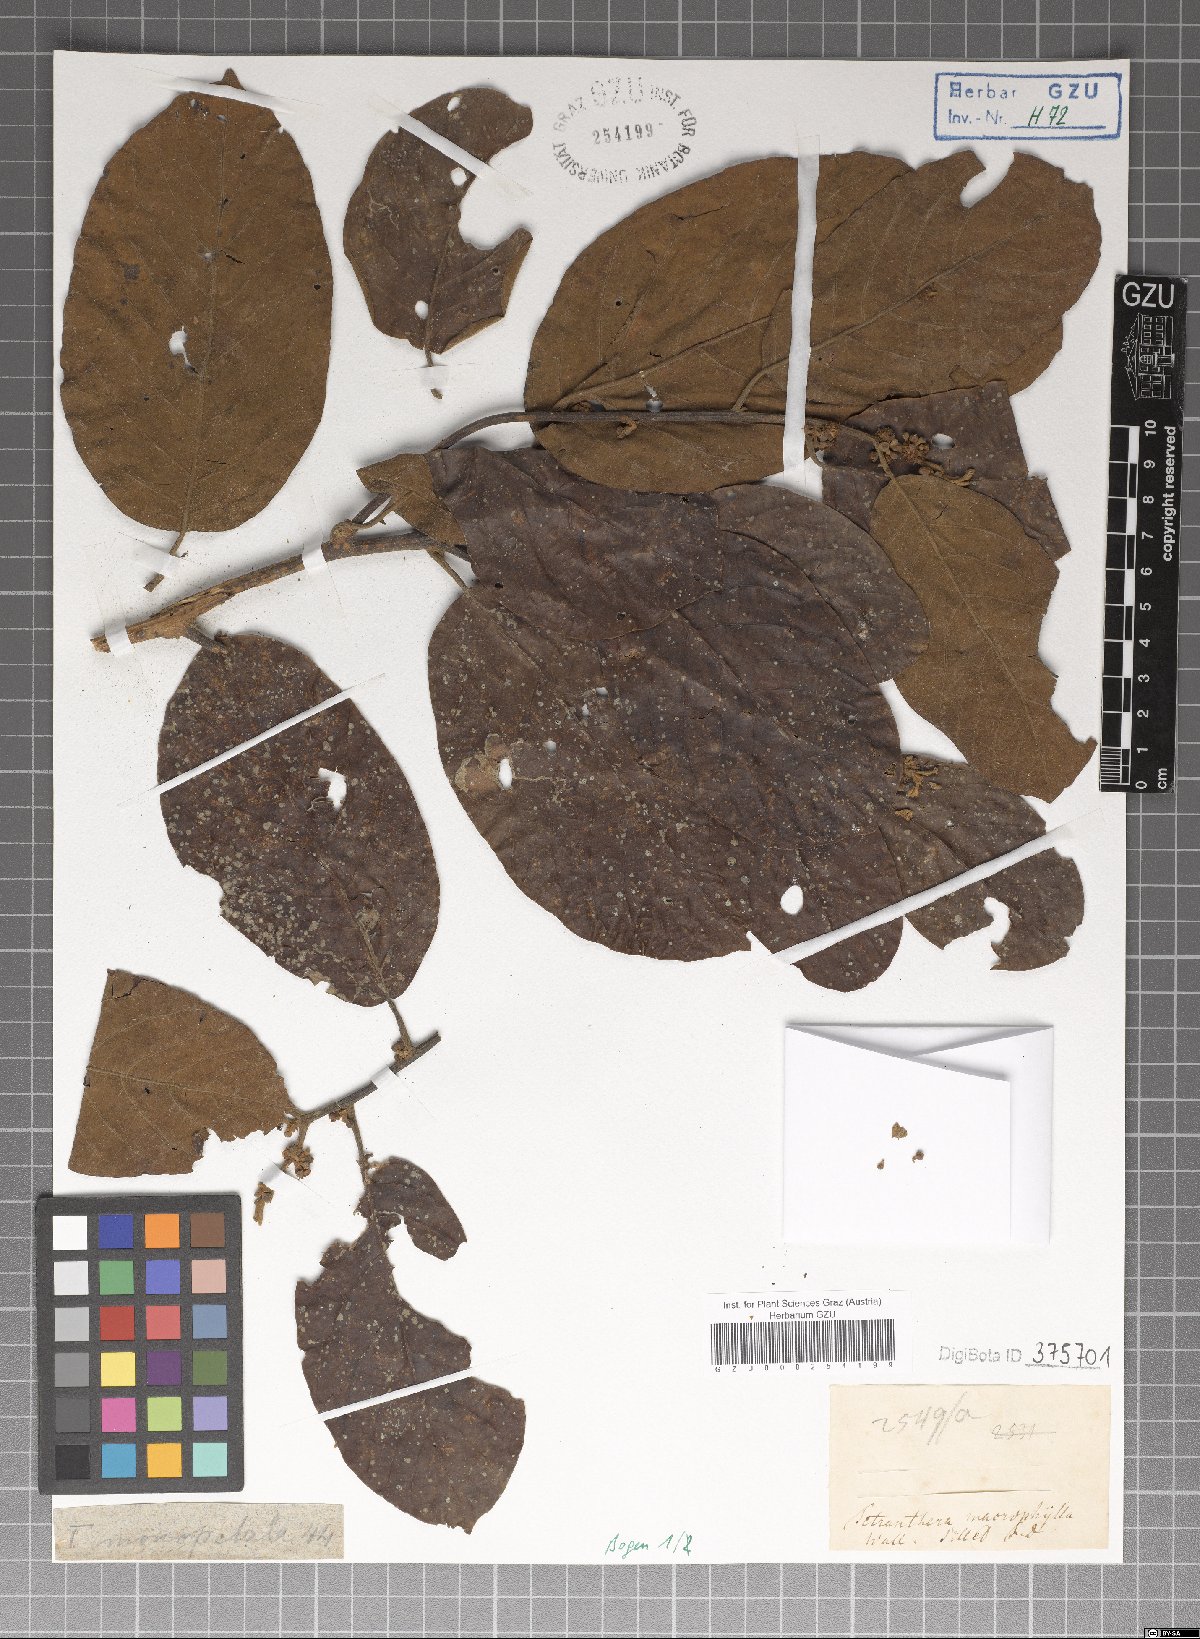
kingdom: Plantae
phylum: Tracheophyta
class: Magnoliopsida
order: Laurales
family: Lauraceae
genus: Litsea
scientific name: Litsea monopetala
